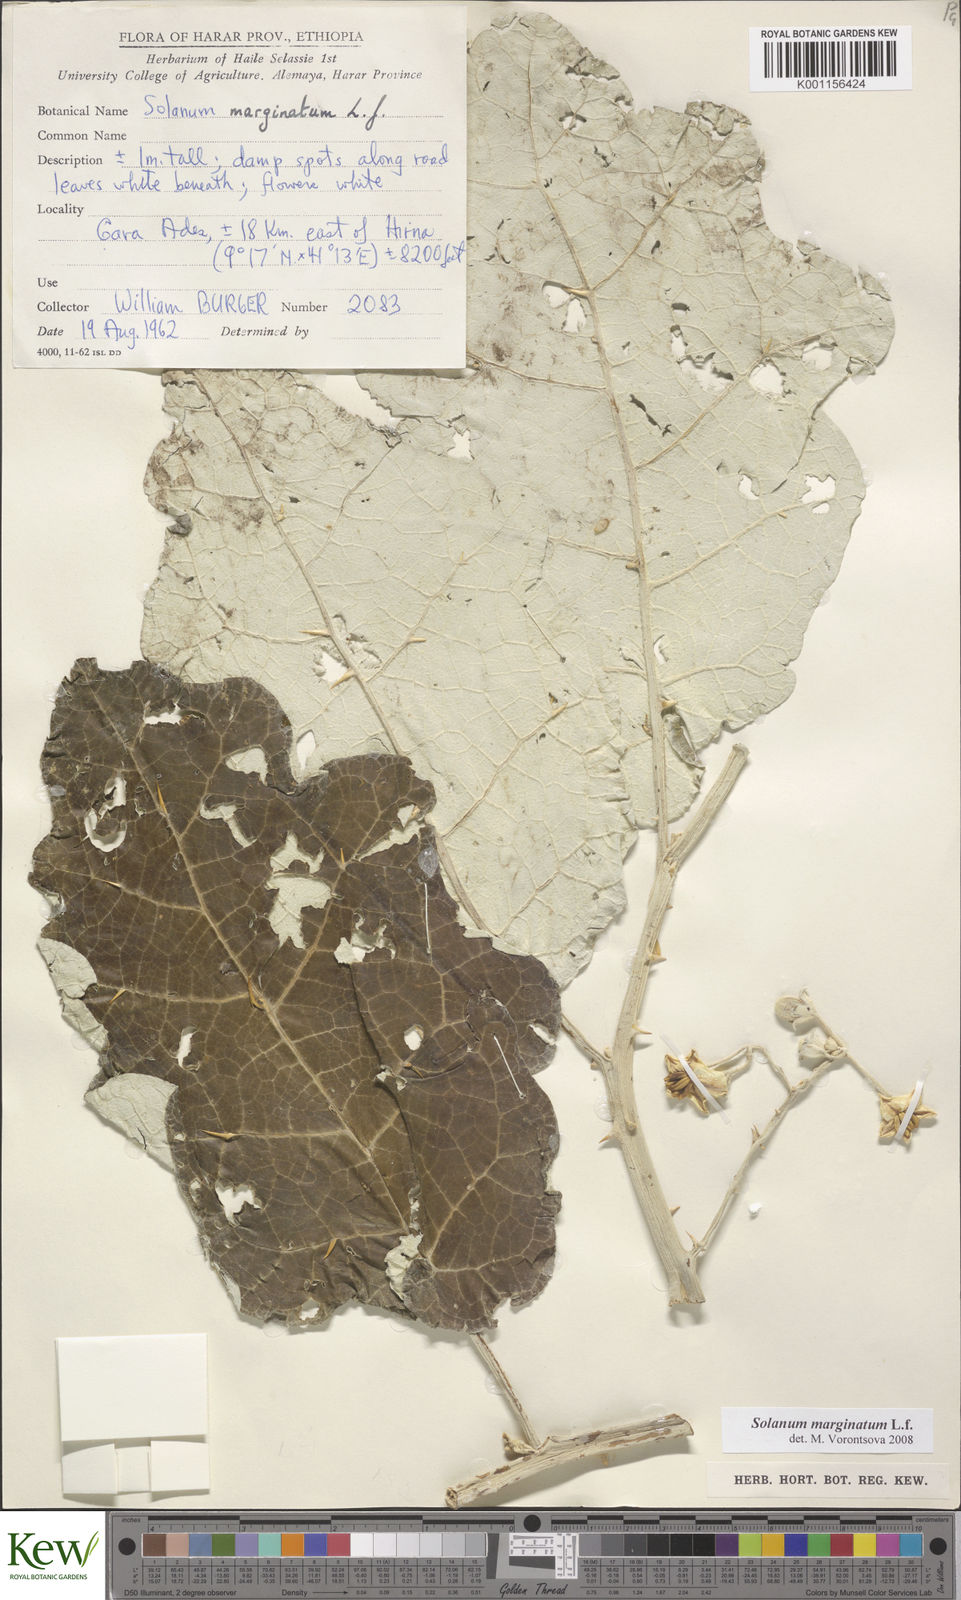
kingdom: Plantae
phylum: Tracheophyta
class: Magnoliopsida
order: Solanales
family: Solanaceae
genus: Solanum
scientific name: Solanum marginatum
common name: Purple african nightshade
